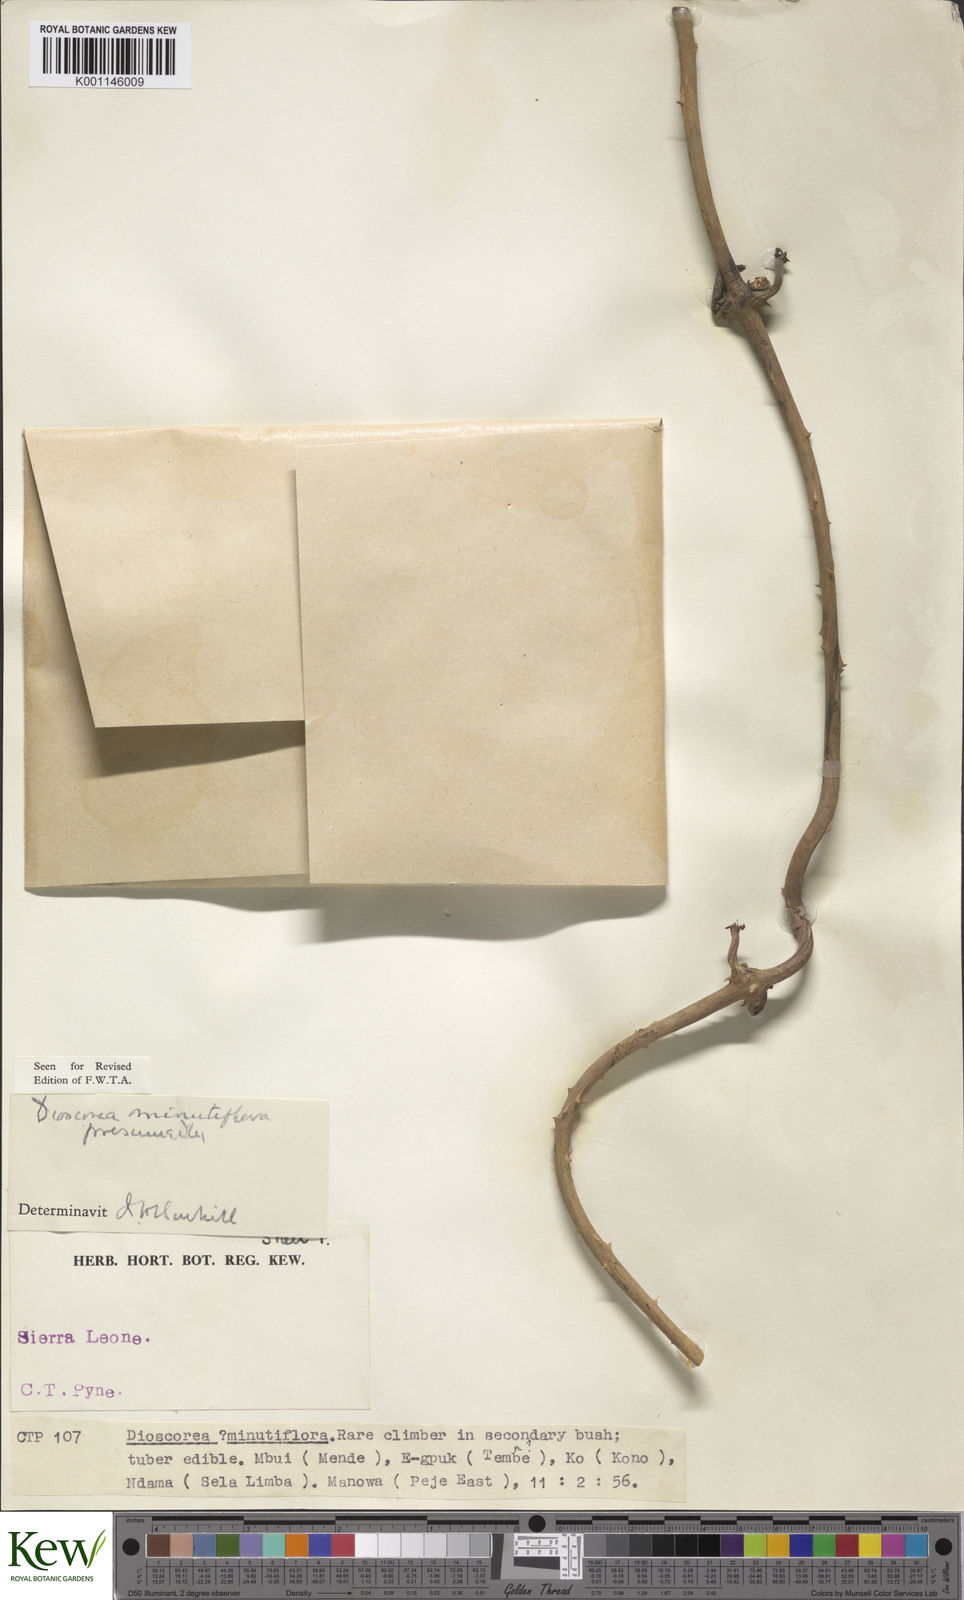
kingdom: Plantae
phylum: Tracheophyta
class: Liliopsida
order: Dioscoreales
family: Dioscoreaceae
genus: Dioscorea
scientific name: Dioscorea minutiflora
